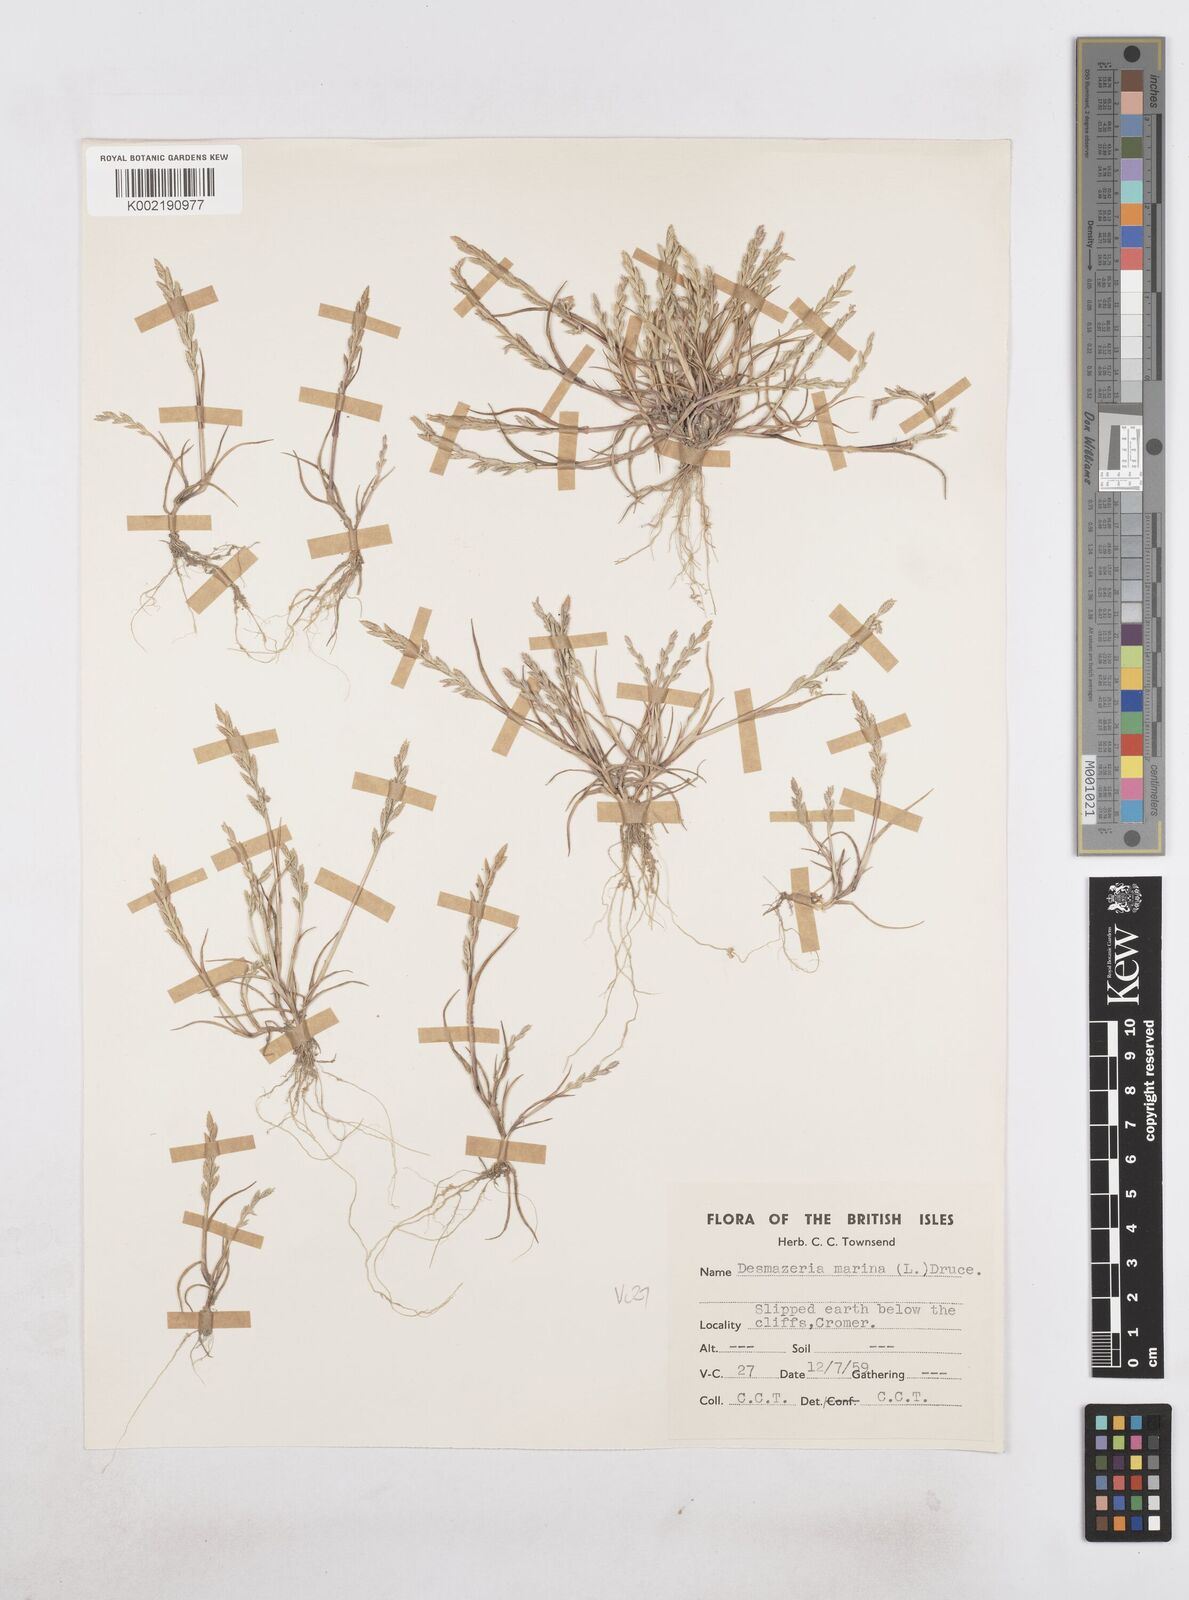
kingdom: Plantae
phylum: Tracheophyta
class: Liliopsida
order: Poales
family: Poaceae
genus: Catapodium
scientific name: Catapodium marinum
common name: Sea fern-grass
